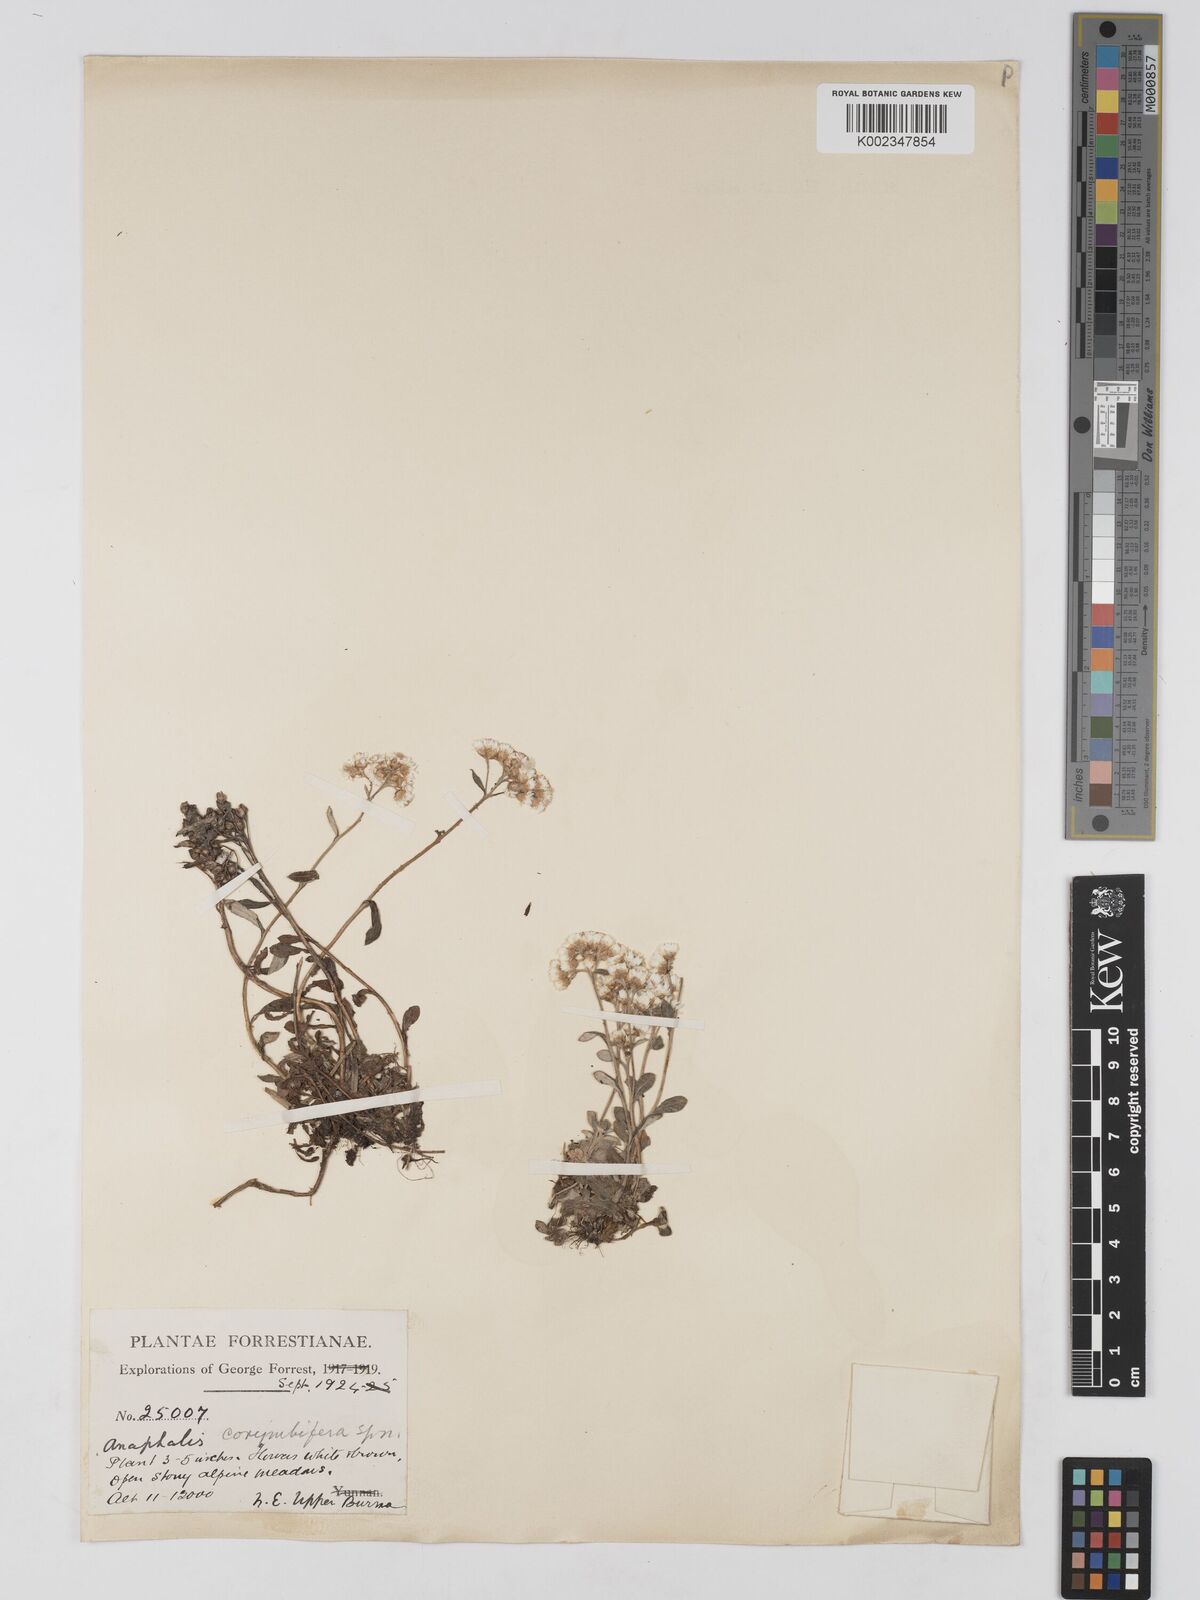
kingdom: Plantae
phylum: Tracheophyta
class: Magnoliopsida
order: Asterales
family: Asteraceae
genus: Anaphalis
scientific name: Anaphalis corymbifera
